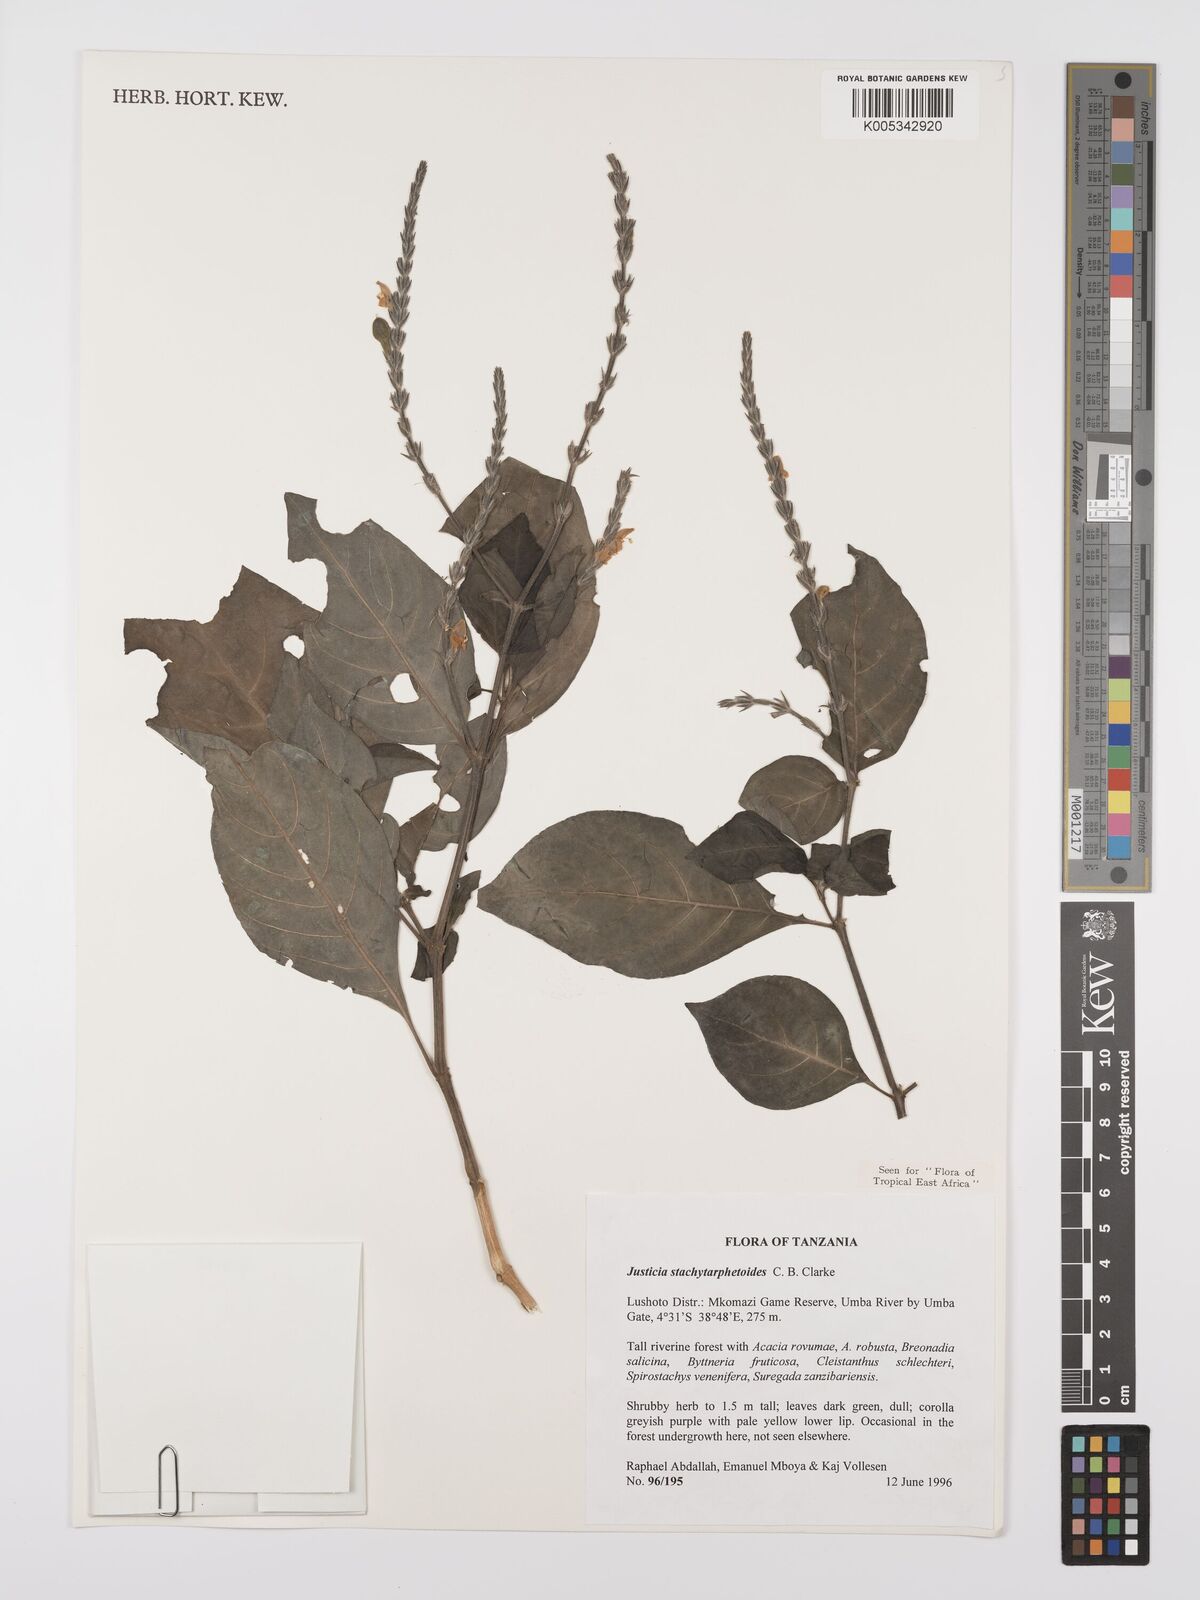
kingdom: Plantae
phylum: Tracheophyta
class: Magnoliopsida
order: Lamiales
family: Acanthaceae
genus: Justicia
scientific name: Justicia stachytarphetoides
